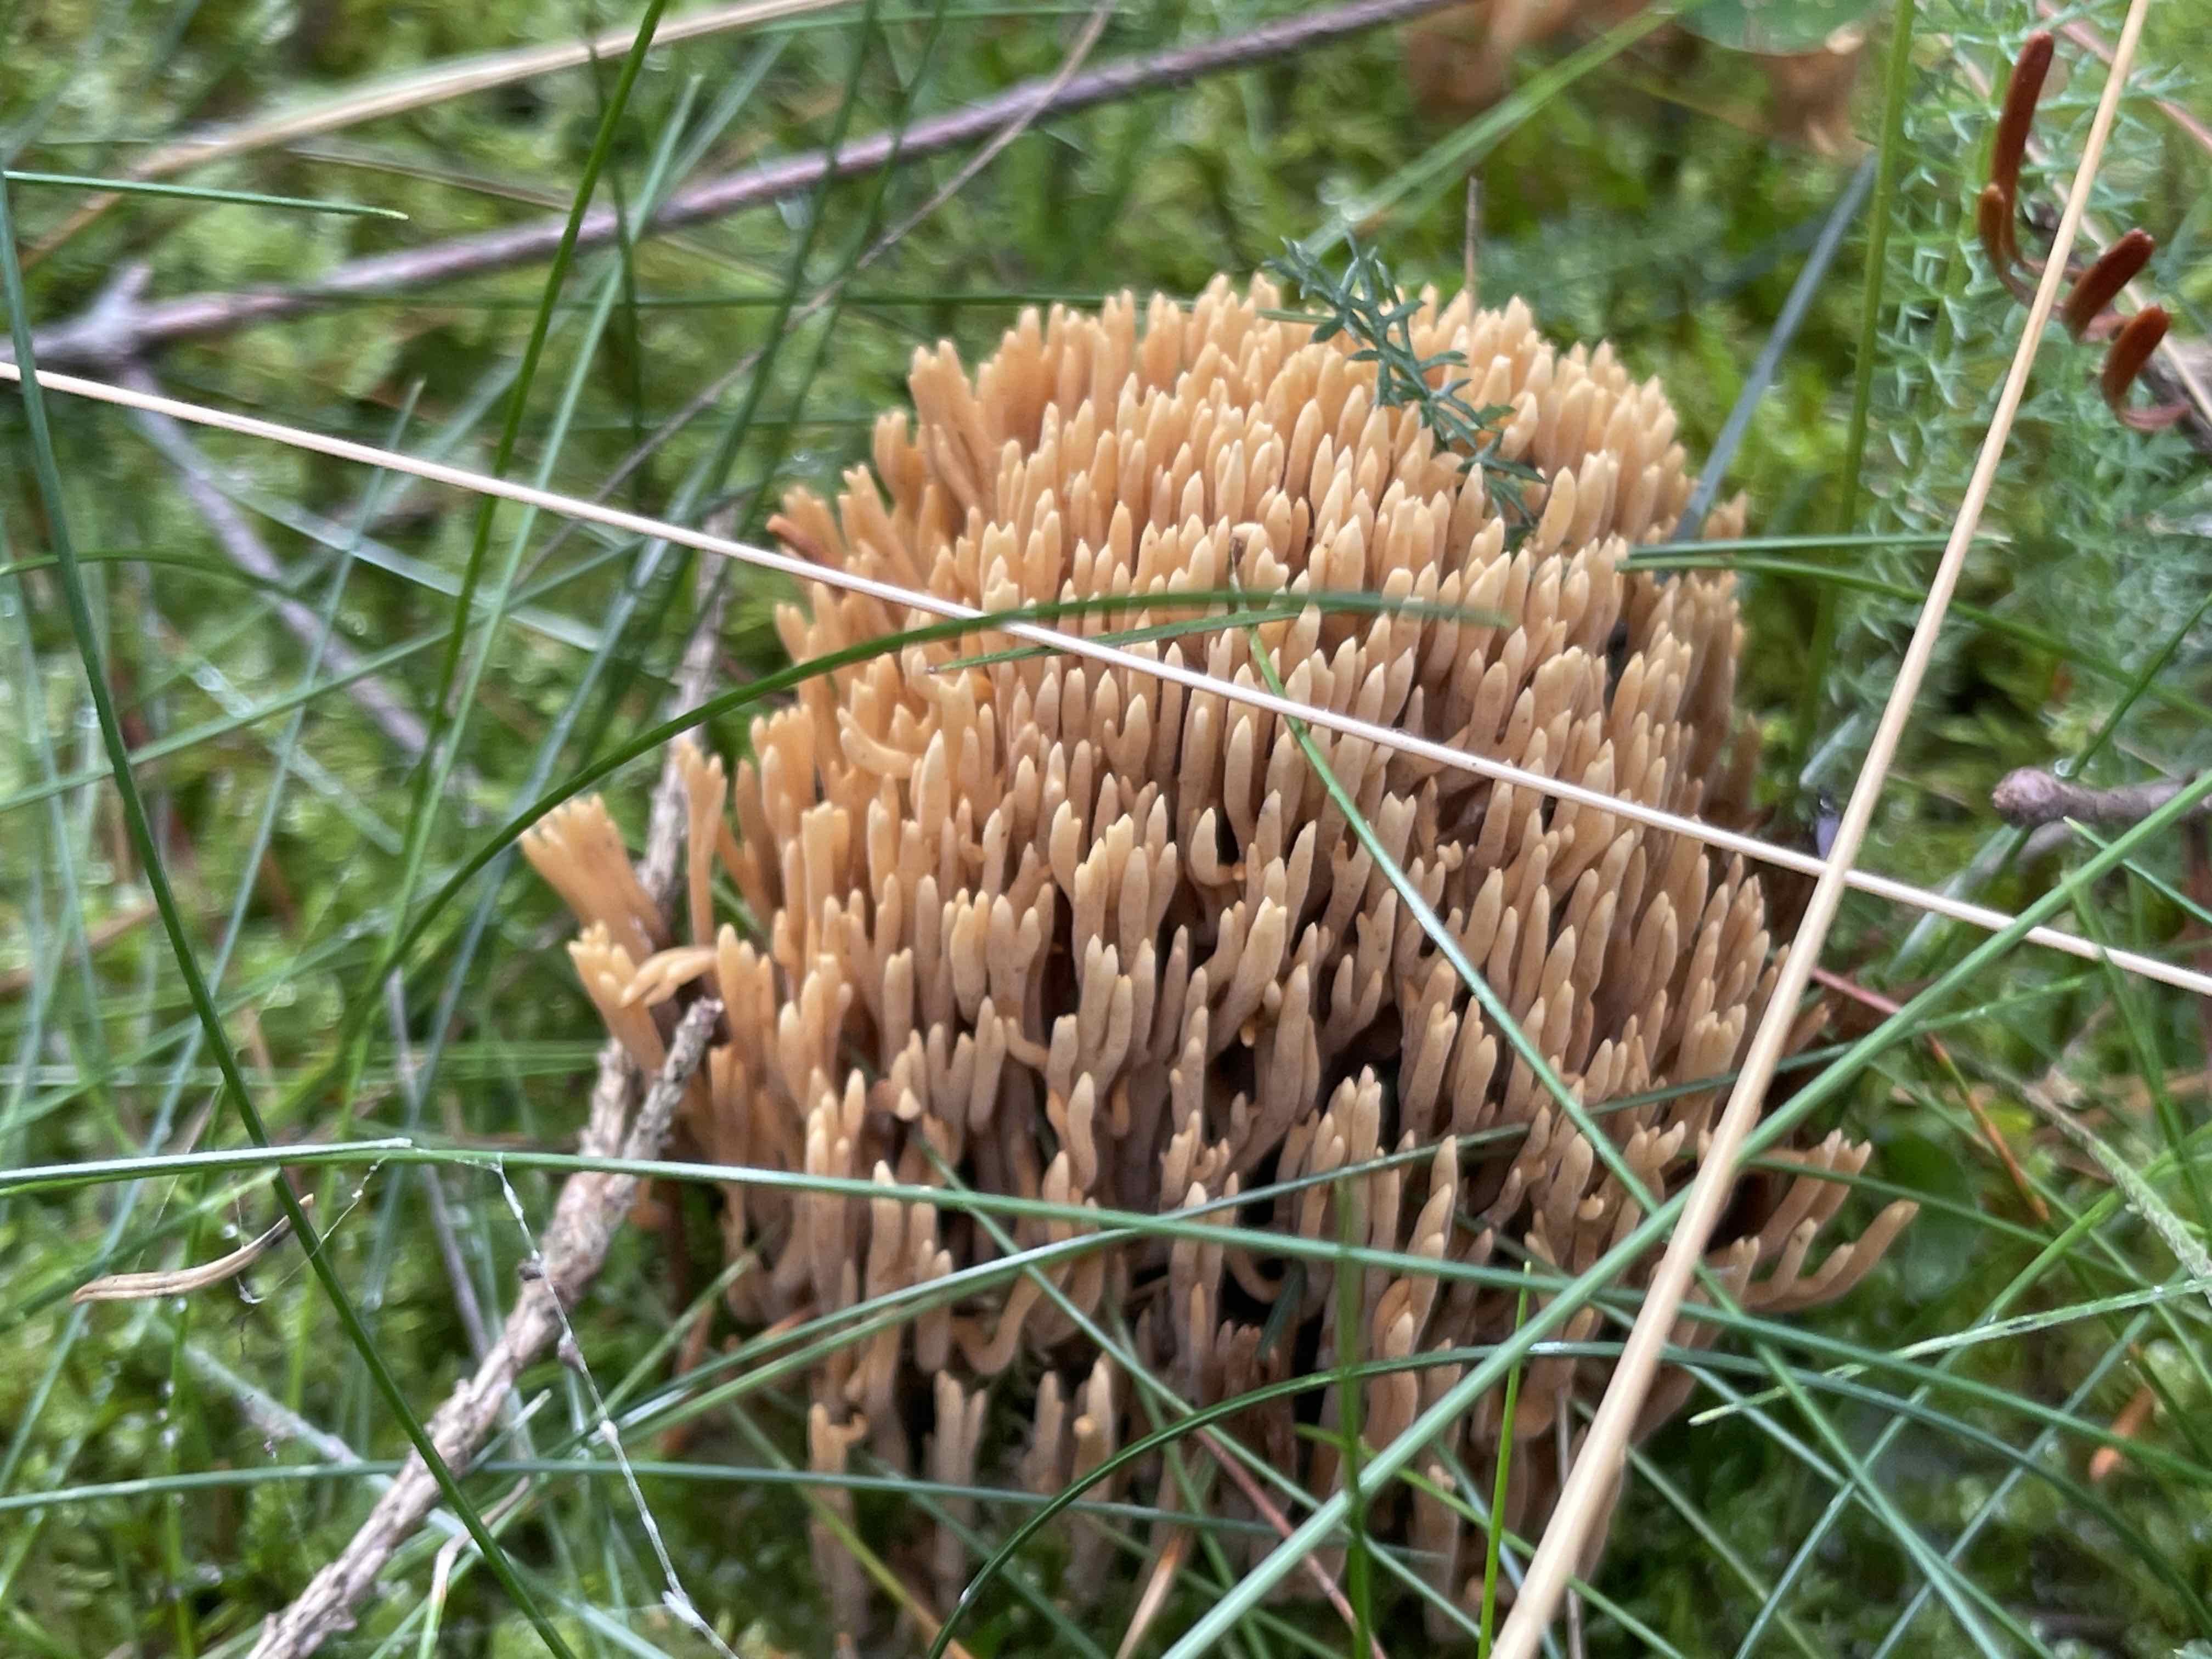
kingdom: Fungi
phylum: Basidiomycota
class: Agaricomycetes
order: Gomphales
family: Gomphaceae
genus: Phaeoclavulina
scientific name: Phaeoclavulina eumorpha
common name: gran-koralsvamp
